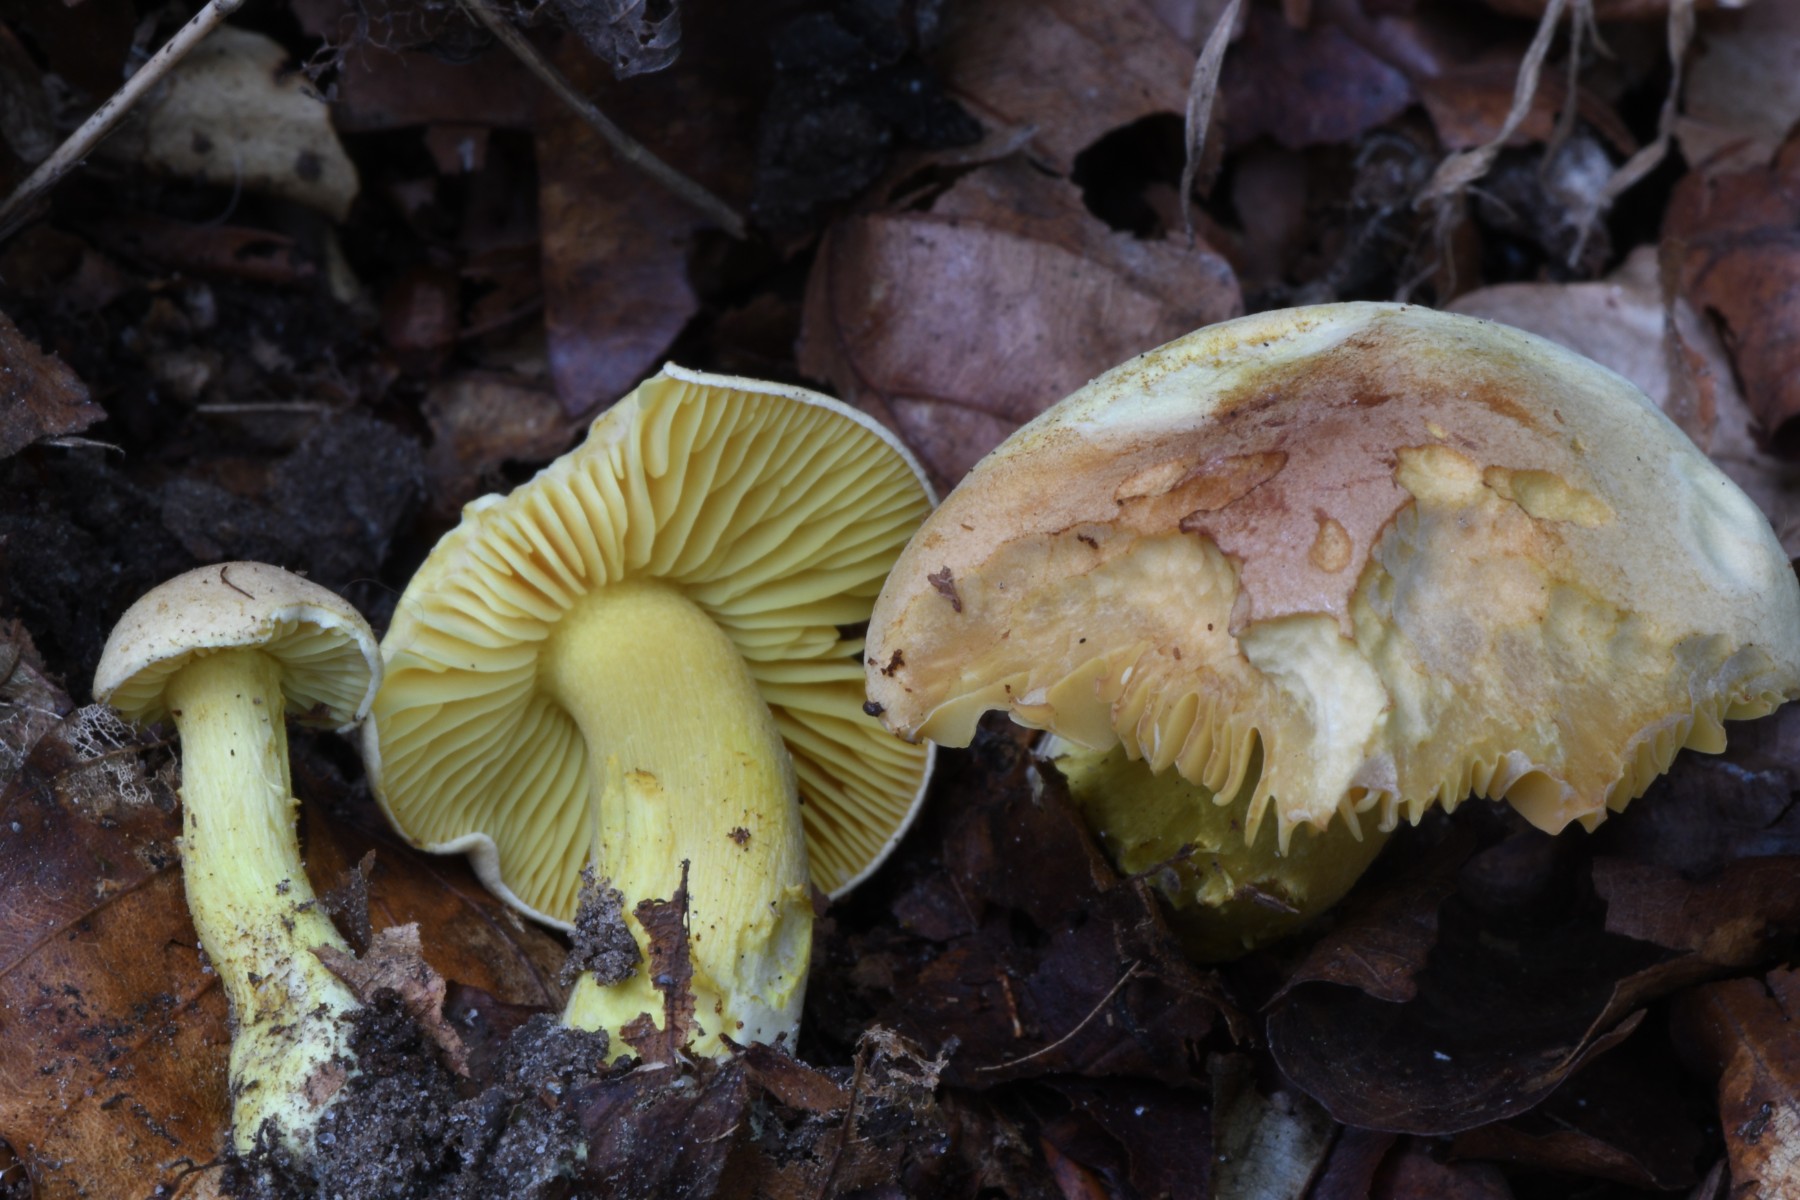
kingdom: Fungi
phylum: Basidiomycota
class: Agaricomycetes
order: Agaricales
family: Tricholomataceae
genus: Tricholoma
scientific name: Tricholoma sulphureum
